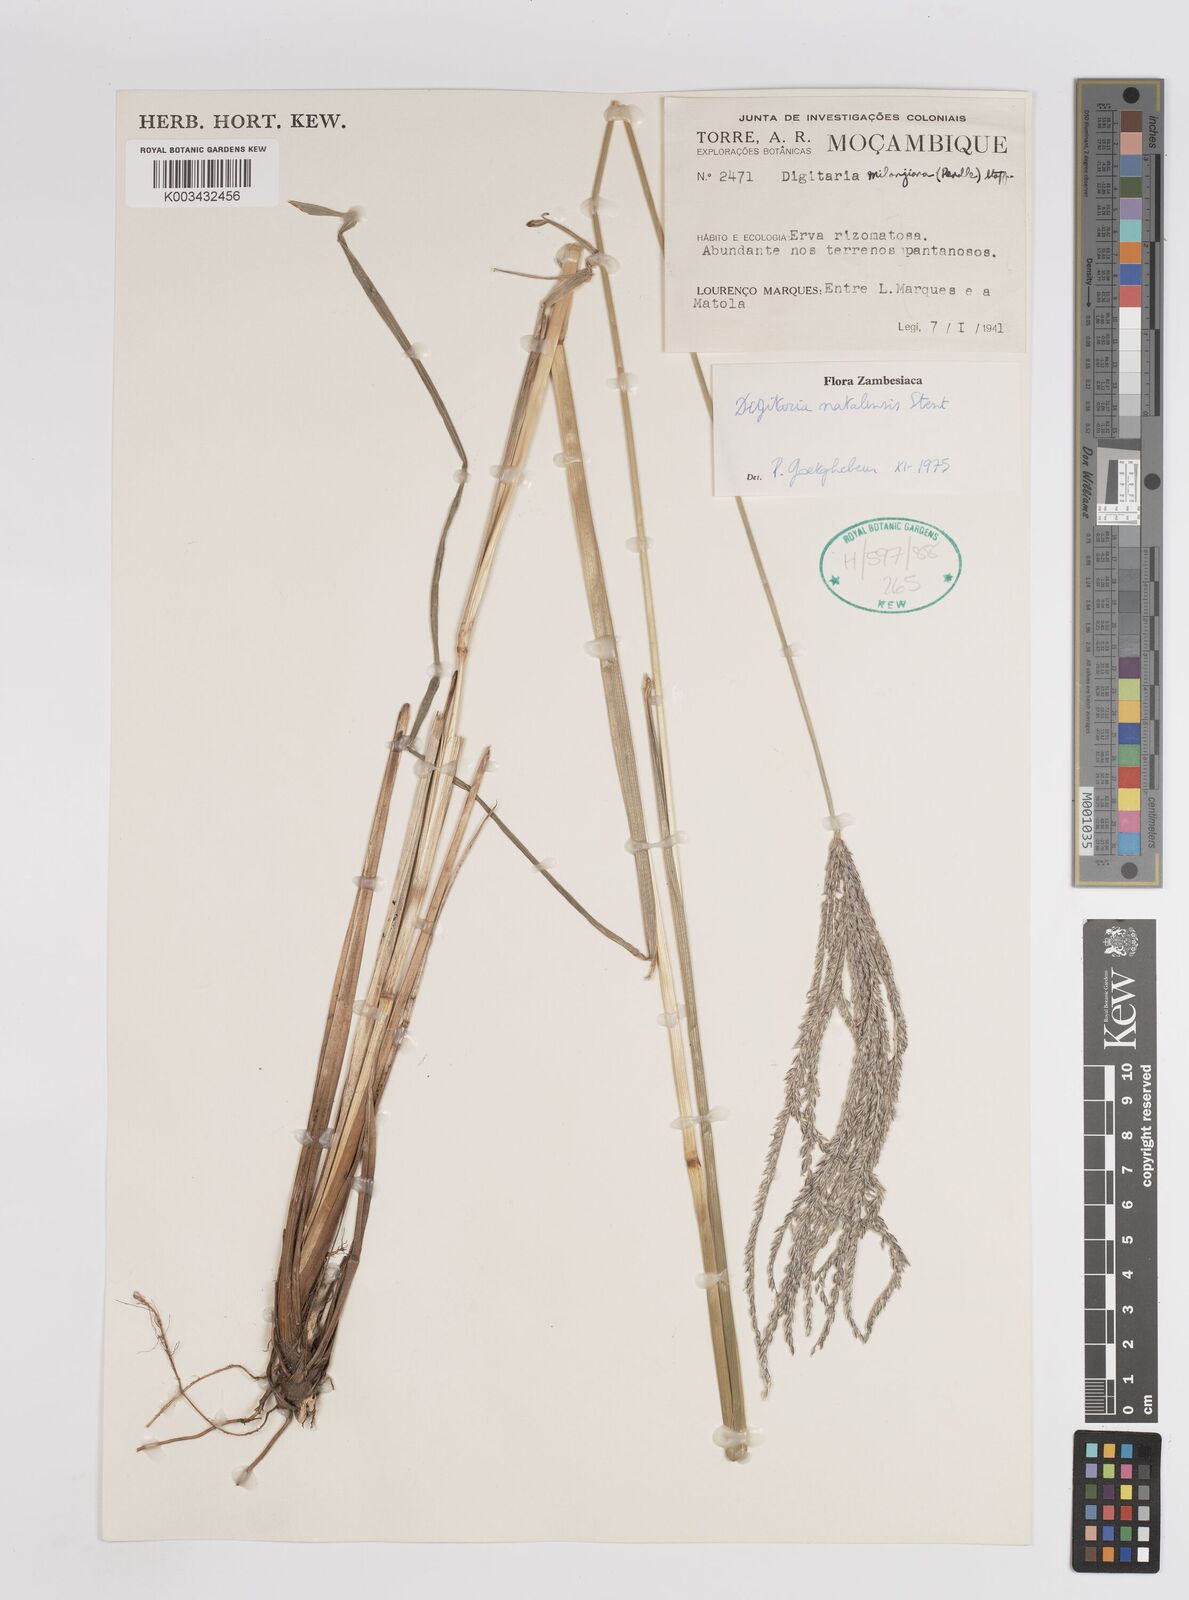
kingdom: Plantae
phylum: Tracheophyta
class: Liliopsida
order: Poales
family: Poaceae
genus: Digitaria
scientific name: Digitaria natalensis
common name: Coast finger grass
